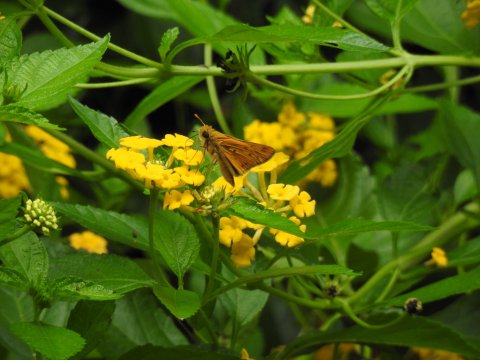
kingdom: Animalia
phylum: Arthropoda
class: Insecta
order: Lepidoptera
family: Hesperiidae
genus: Hylephila
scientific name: Hylephila phyleus
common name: Fiery Skipper
